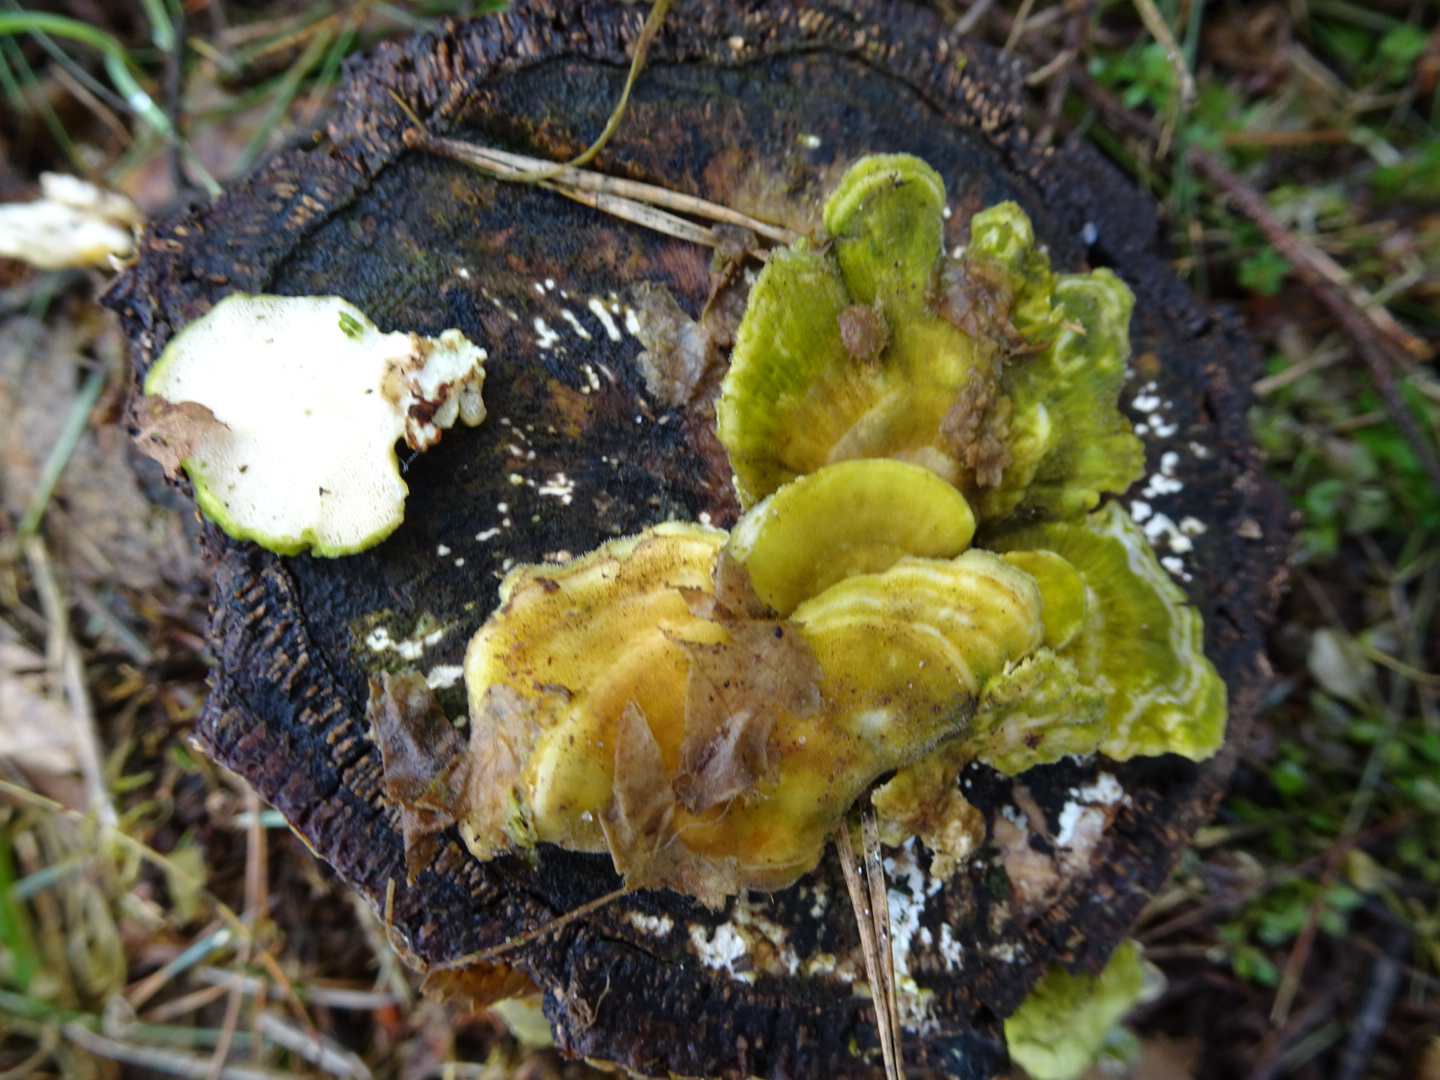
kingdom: Fungi
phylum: Basidiomycota
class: Agaricomycetes
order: Polyporales
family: Polyporaceae
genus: Trametes
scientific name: Trametes hirsuta
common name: håret læderporesvamp
